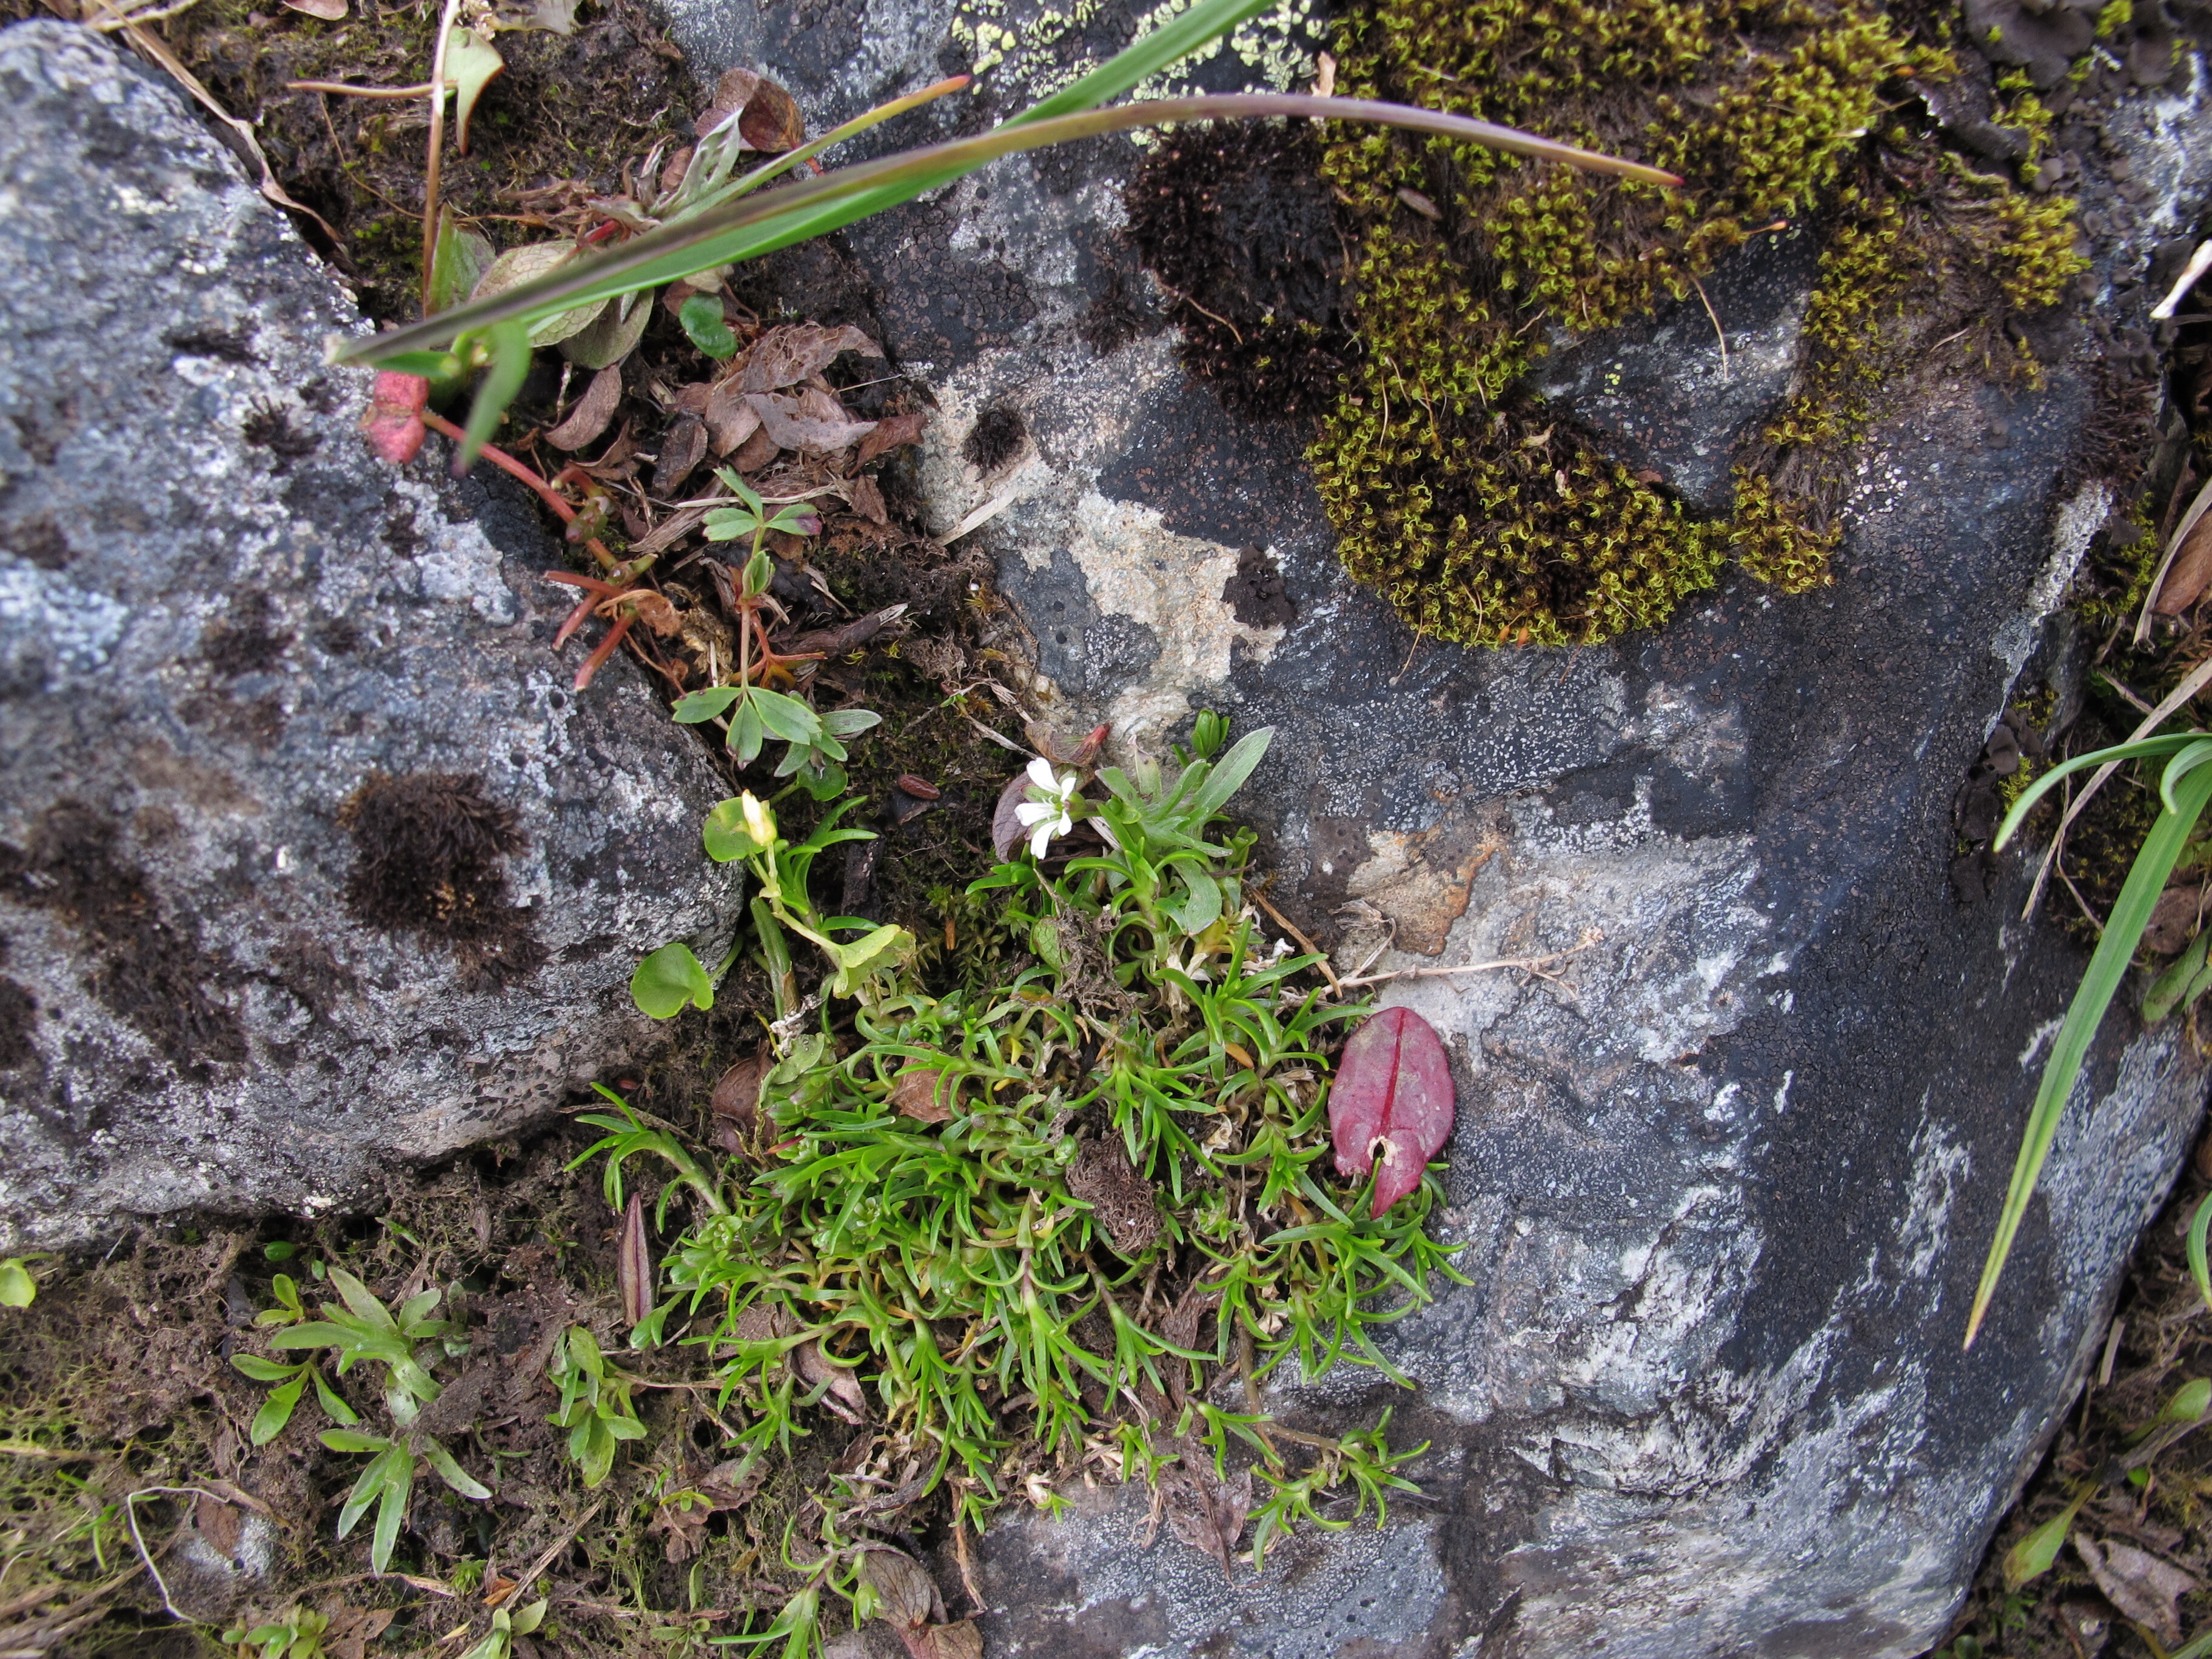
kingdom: Plantae
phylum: Tracheophyta
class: Magnoliopsida
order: Caryophyllales
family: Caryophyllaceae
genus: Cherleria
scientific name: Cherleria biflora
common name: Mountain sandwort
